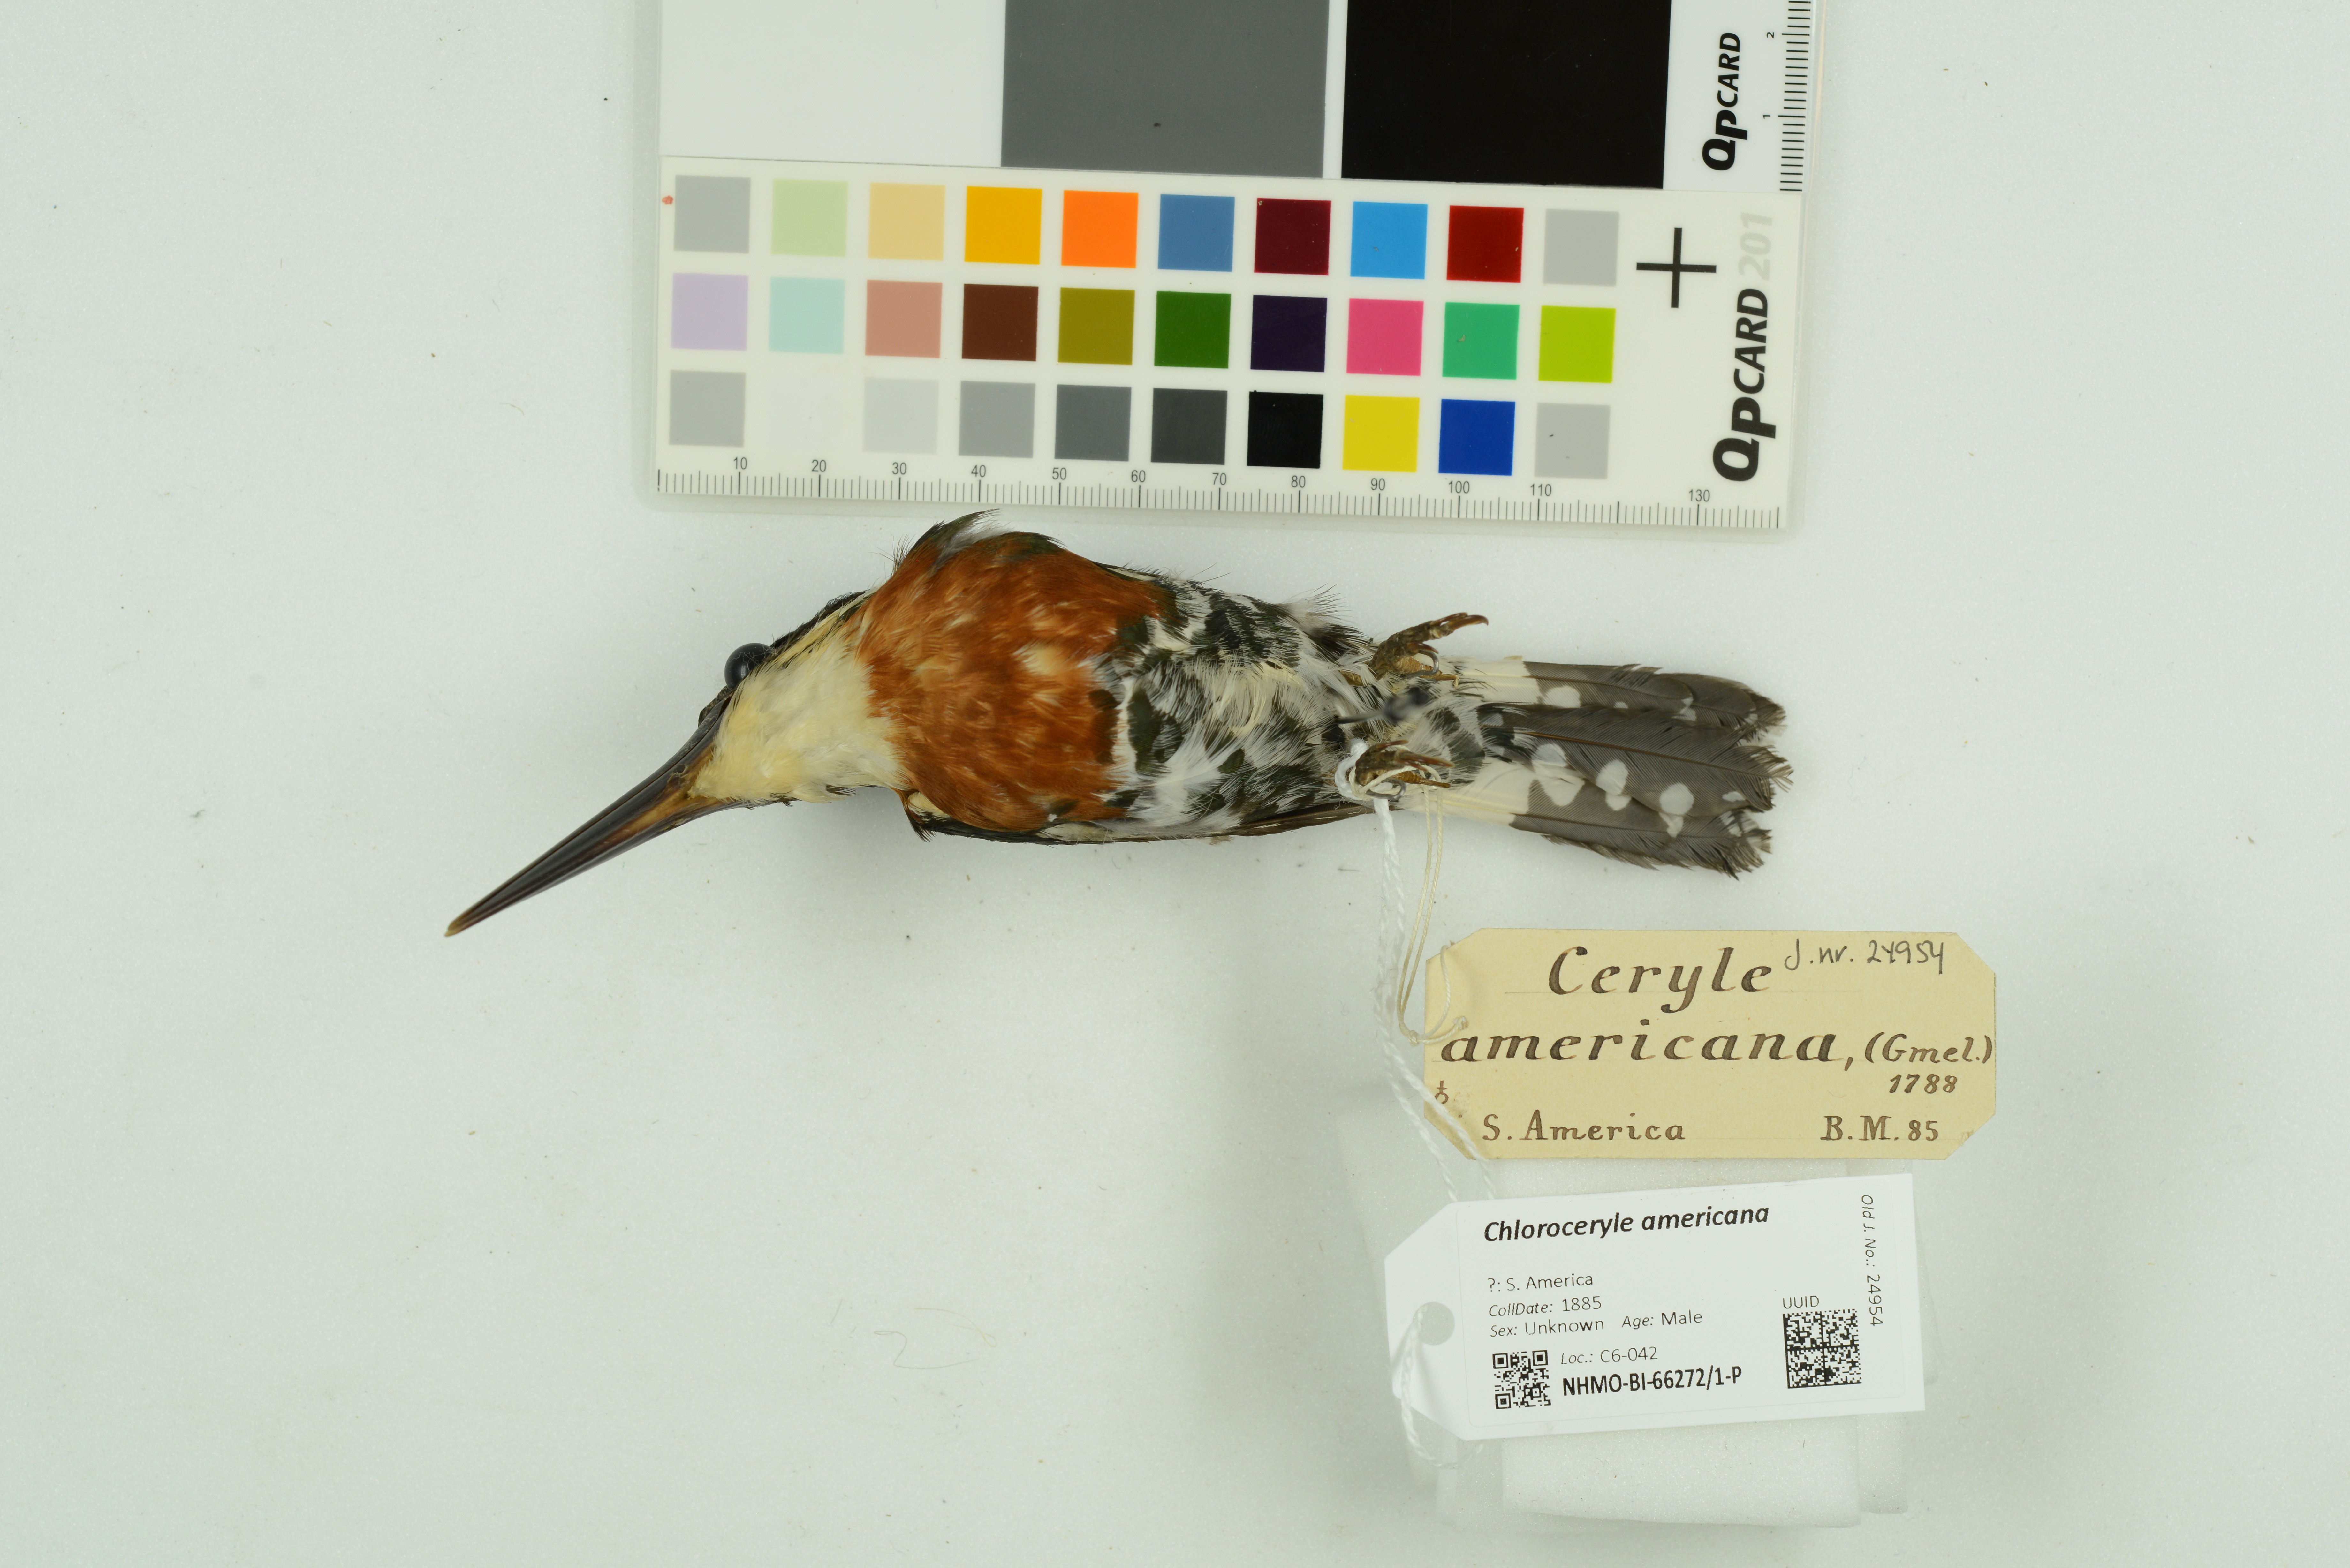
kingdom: Animalia
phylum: Chordata
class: Aves
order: Coraciiformes
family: Alcedinidae
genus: Chloroceryle
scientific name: Chloroceryle americana
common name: Green kingfisher
